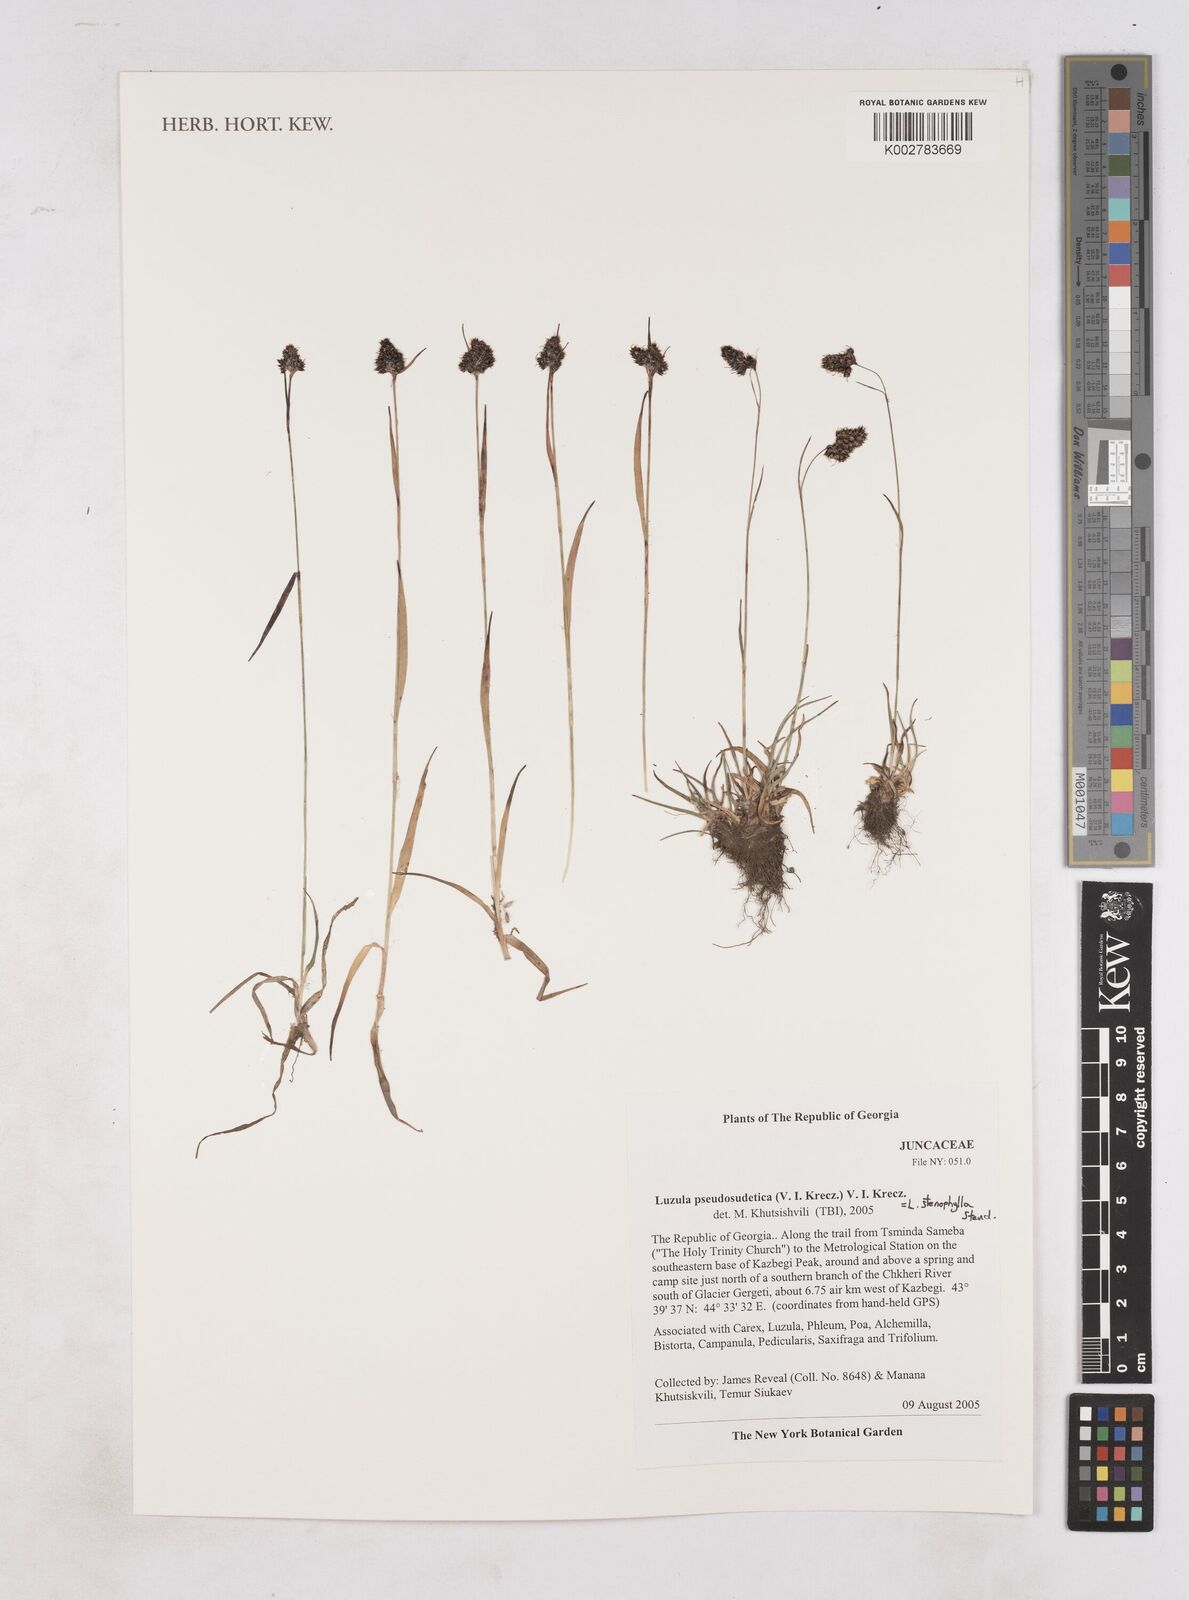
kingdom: Plantae
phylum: Tracheophyta
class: Liliopsida
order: Poales
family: Juncaceae
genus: Luzula
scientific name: Luzula stenophylla
